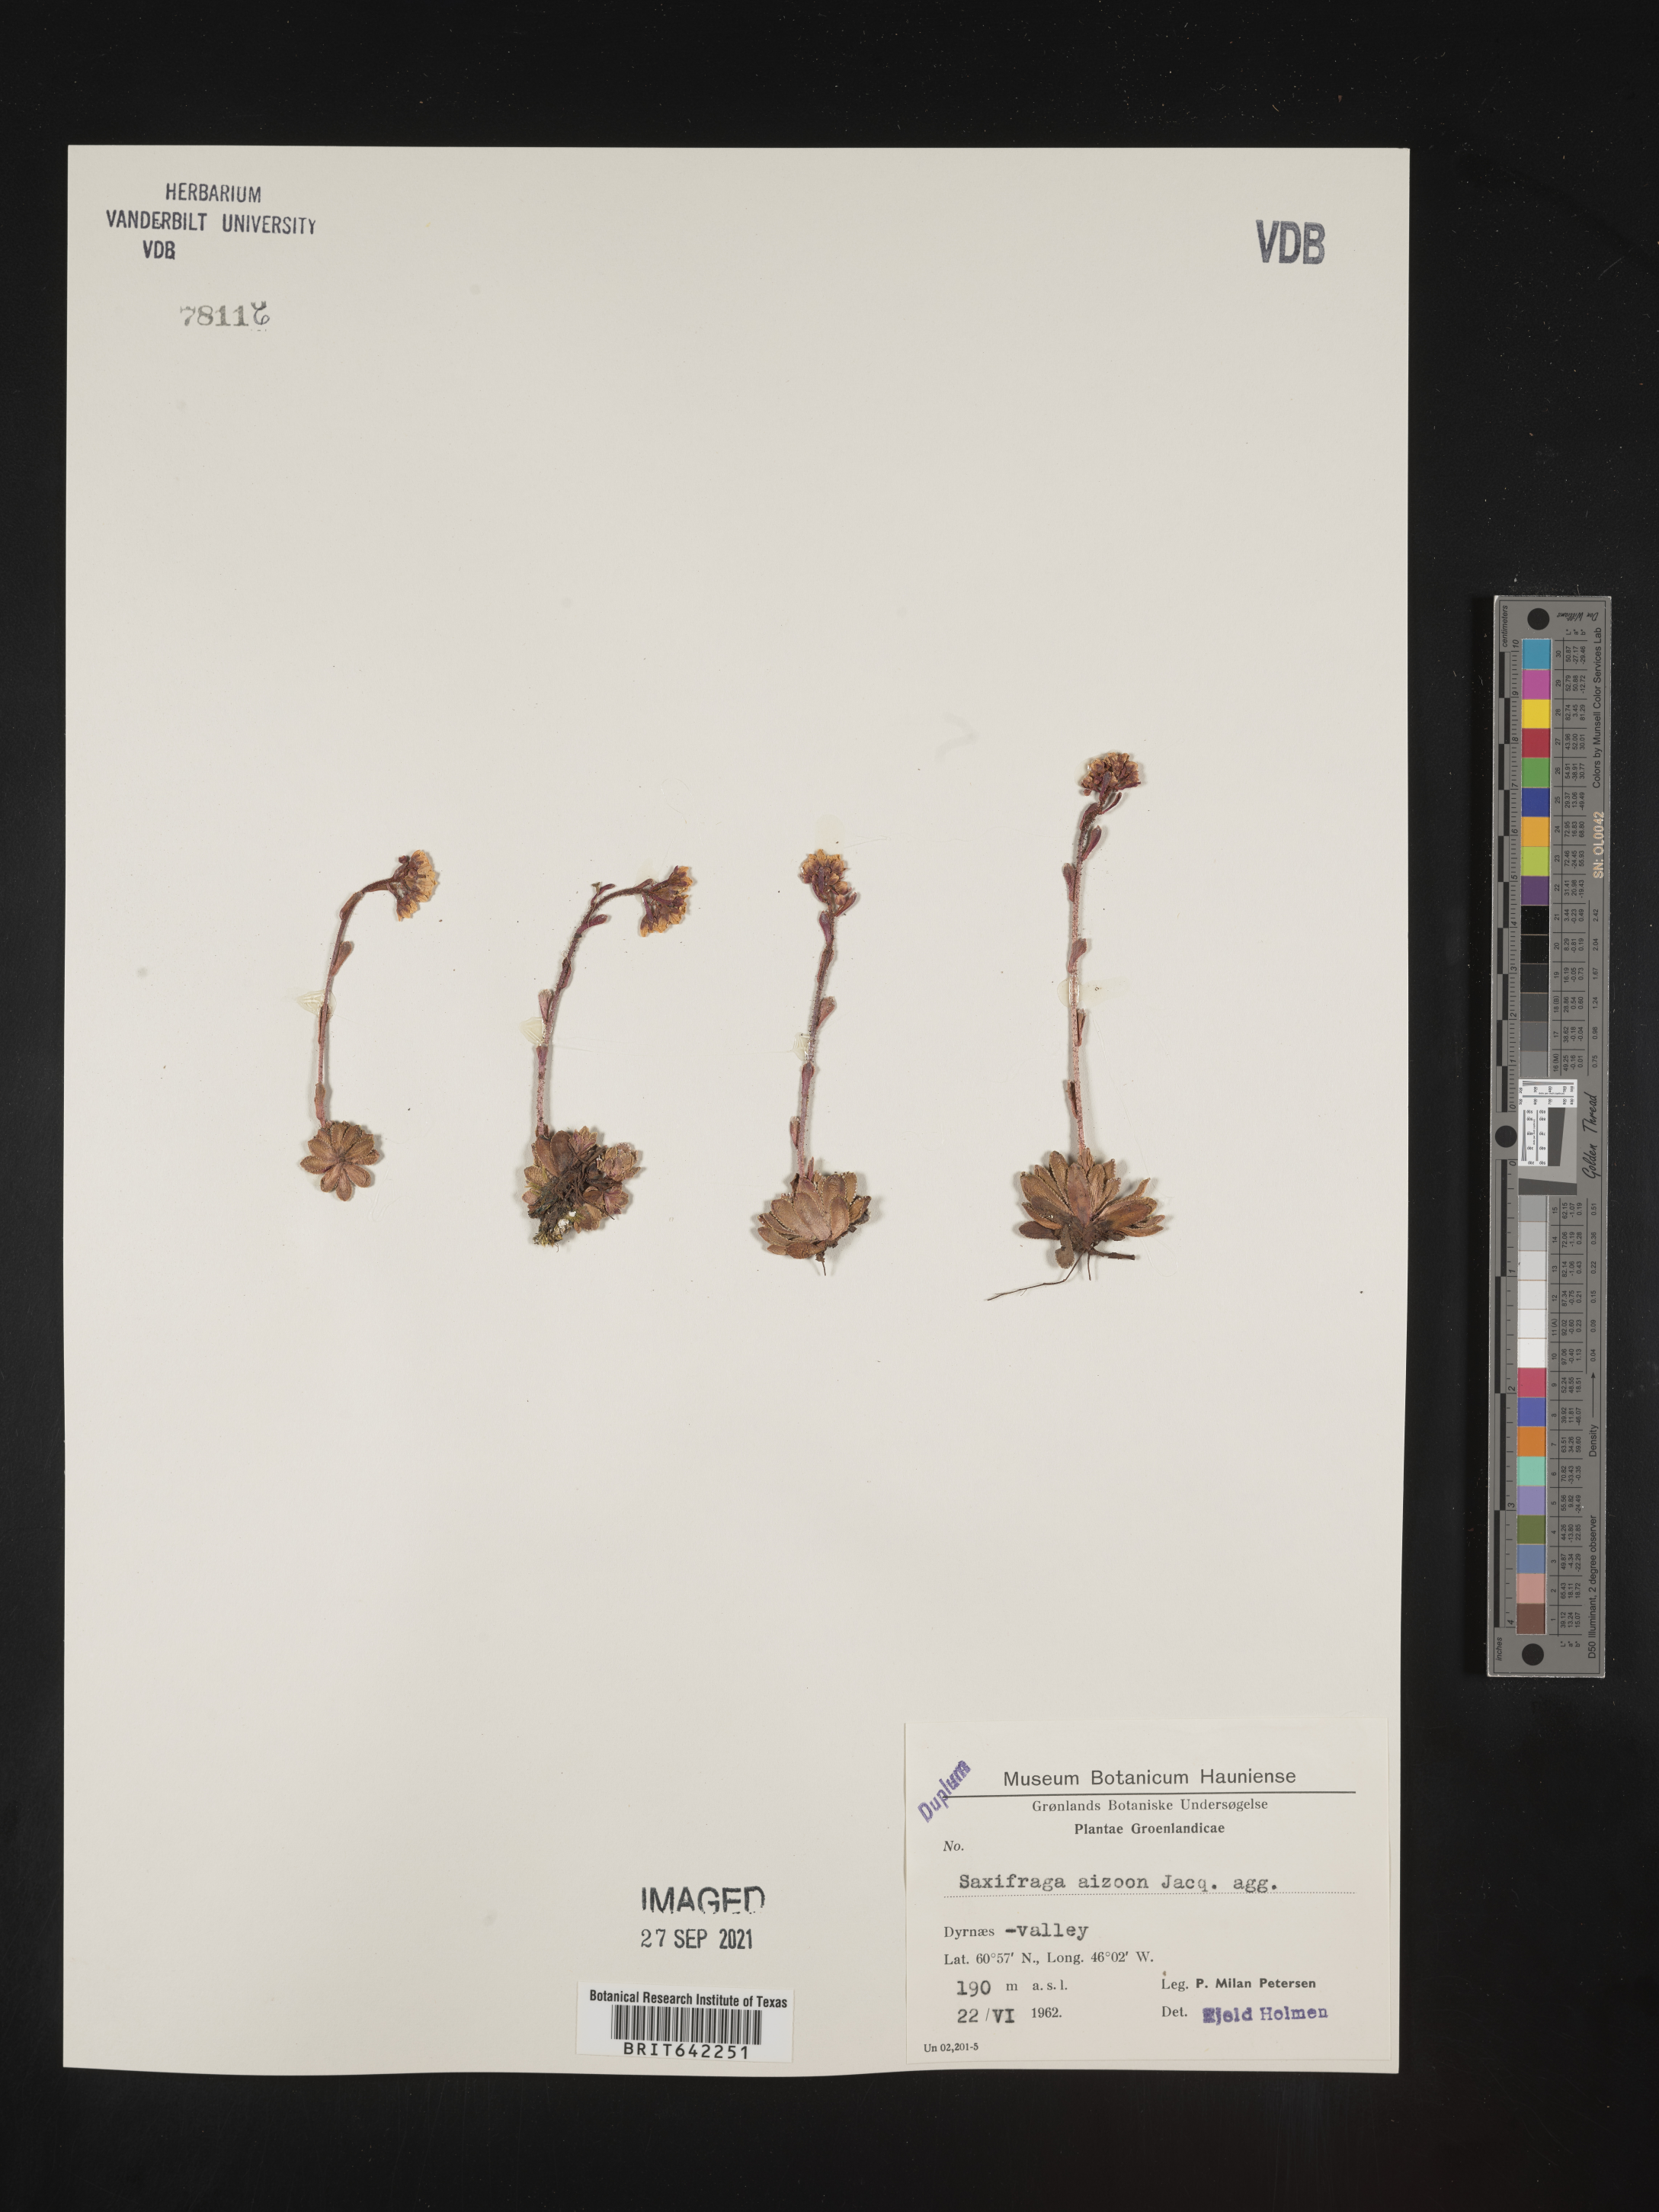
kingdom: Plantae
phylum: Tracheophyta
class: Magnoliopsida
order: Saxifragales
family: Saxifragaceae
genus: Saxifraga
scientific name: Saxifraga
